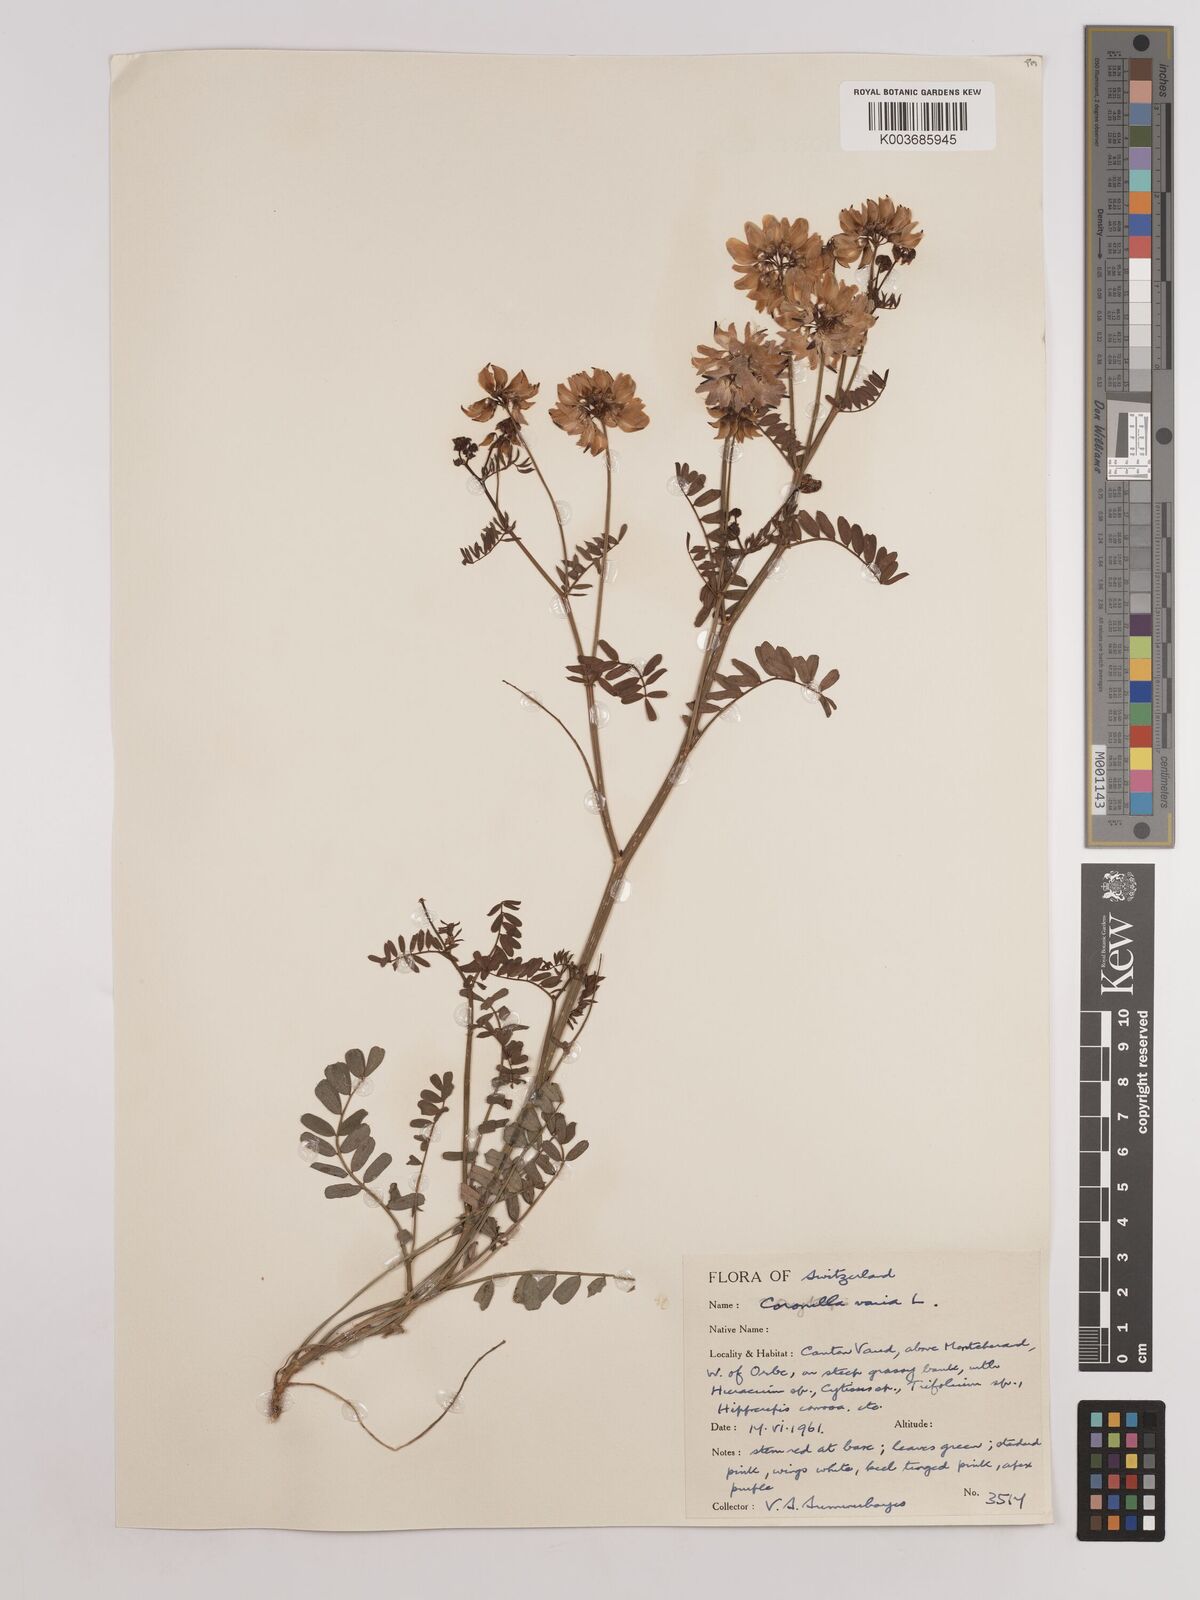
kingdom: Plantae
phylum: Tracheophyta
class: Magnoliopsida
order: Fabales
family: Fabaceae
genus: Coronilla
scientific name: Coronilla varia
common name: Crownvetch
